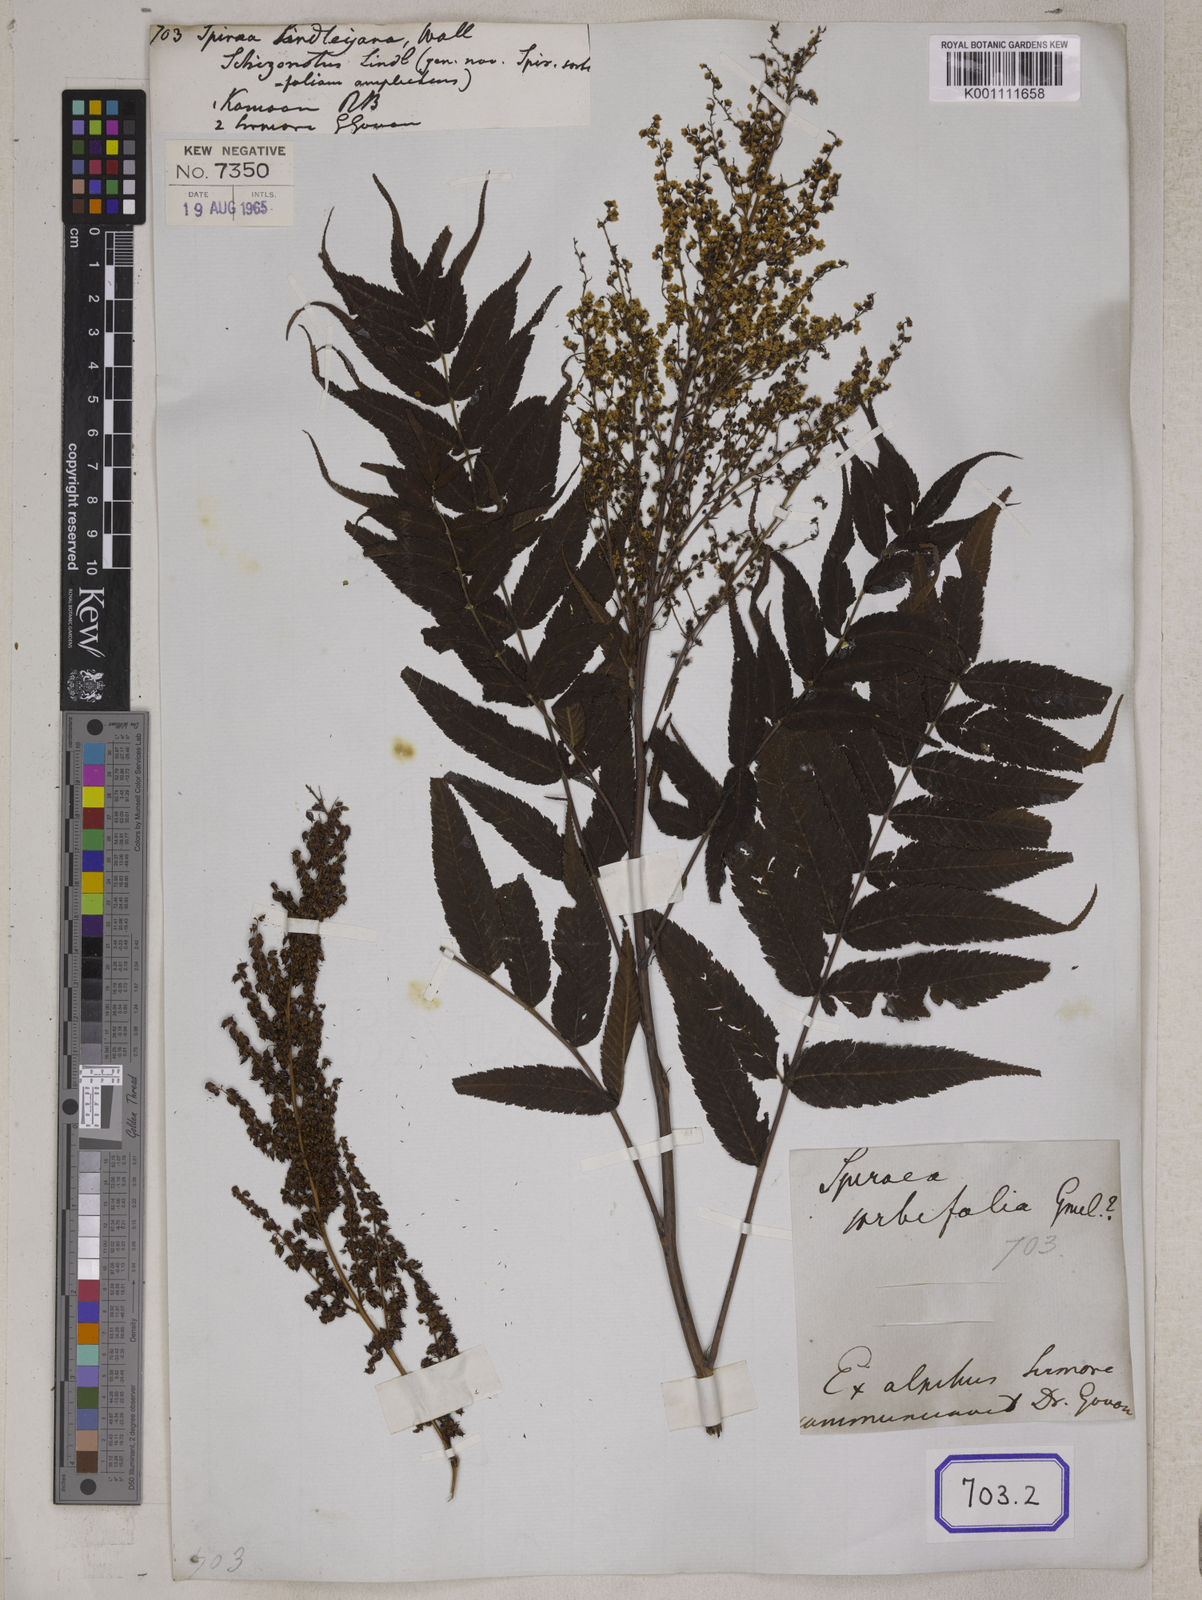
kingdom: Plantae
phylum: Tracheophyta
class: Magnoliopsida
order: Rosales
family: Rosaceae
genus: Spiraea
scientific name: Spiraea
